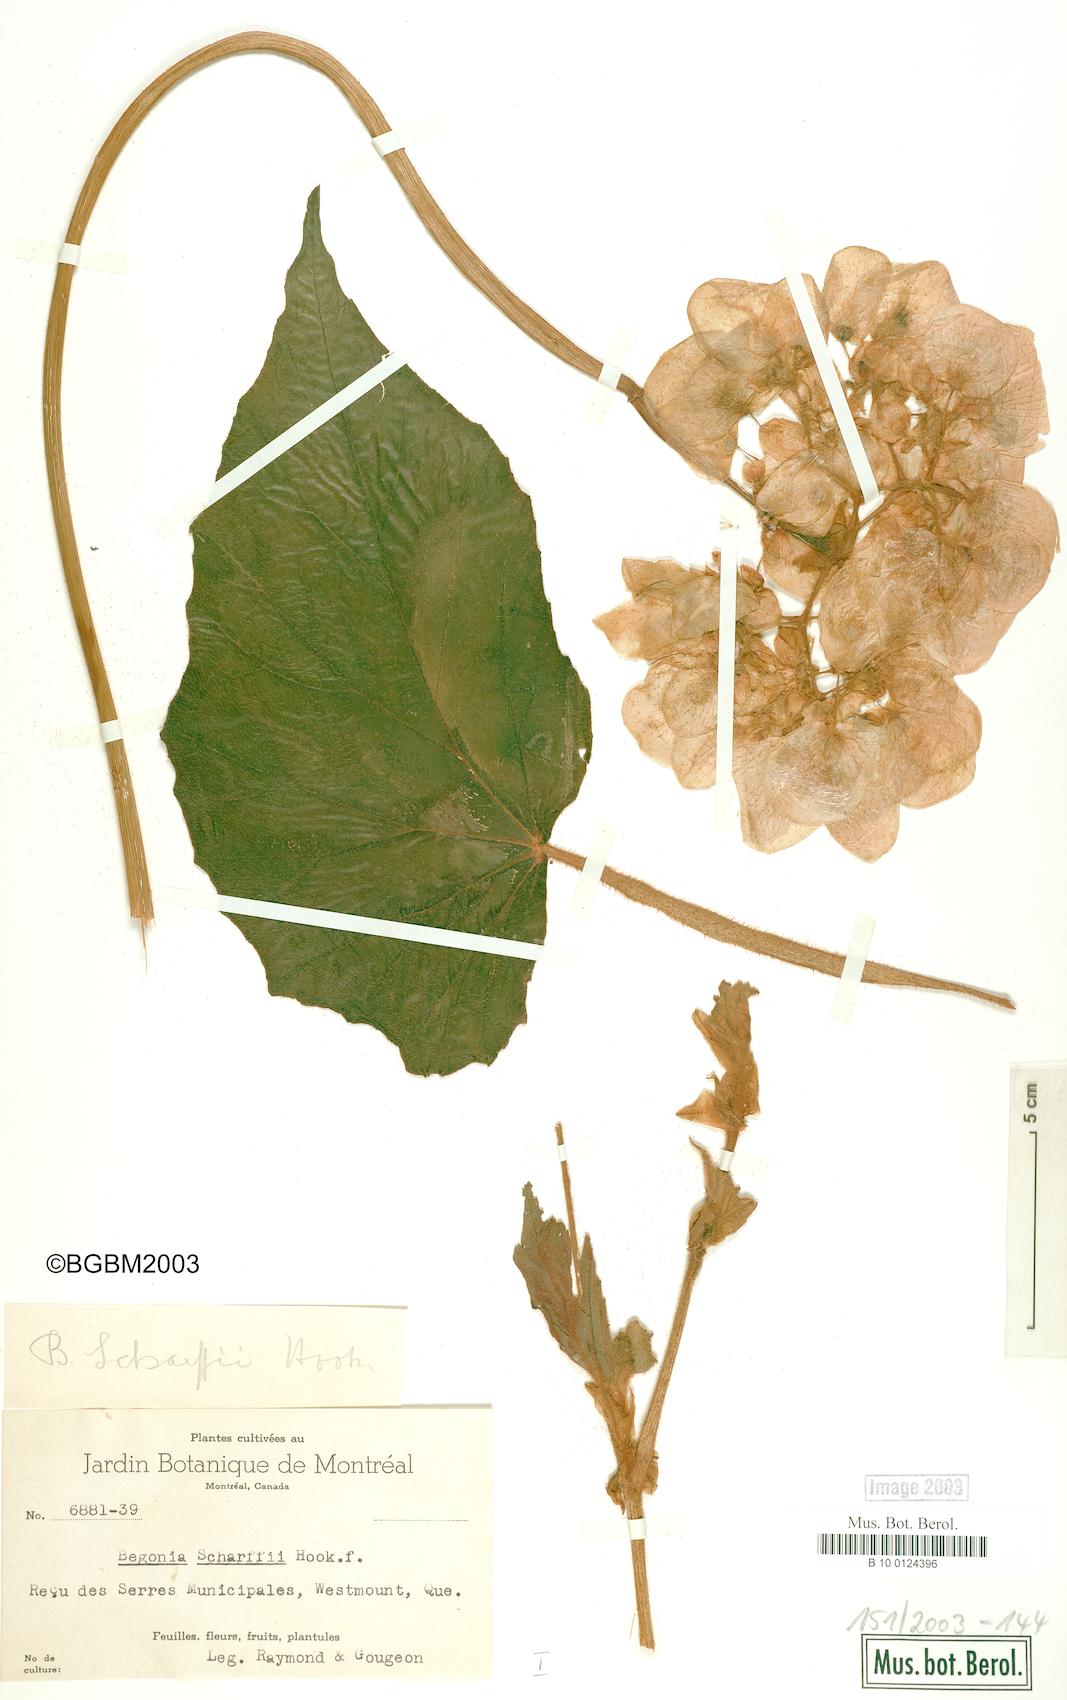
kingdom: Plantae
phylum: Tracheophyta
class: Magnoliopsida
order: Cucurbitales
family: Begoniaceae
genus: Begonia
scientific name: Begonia scharffiana
